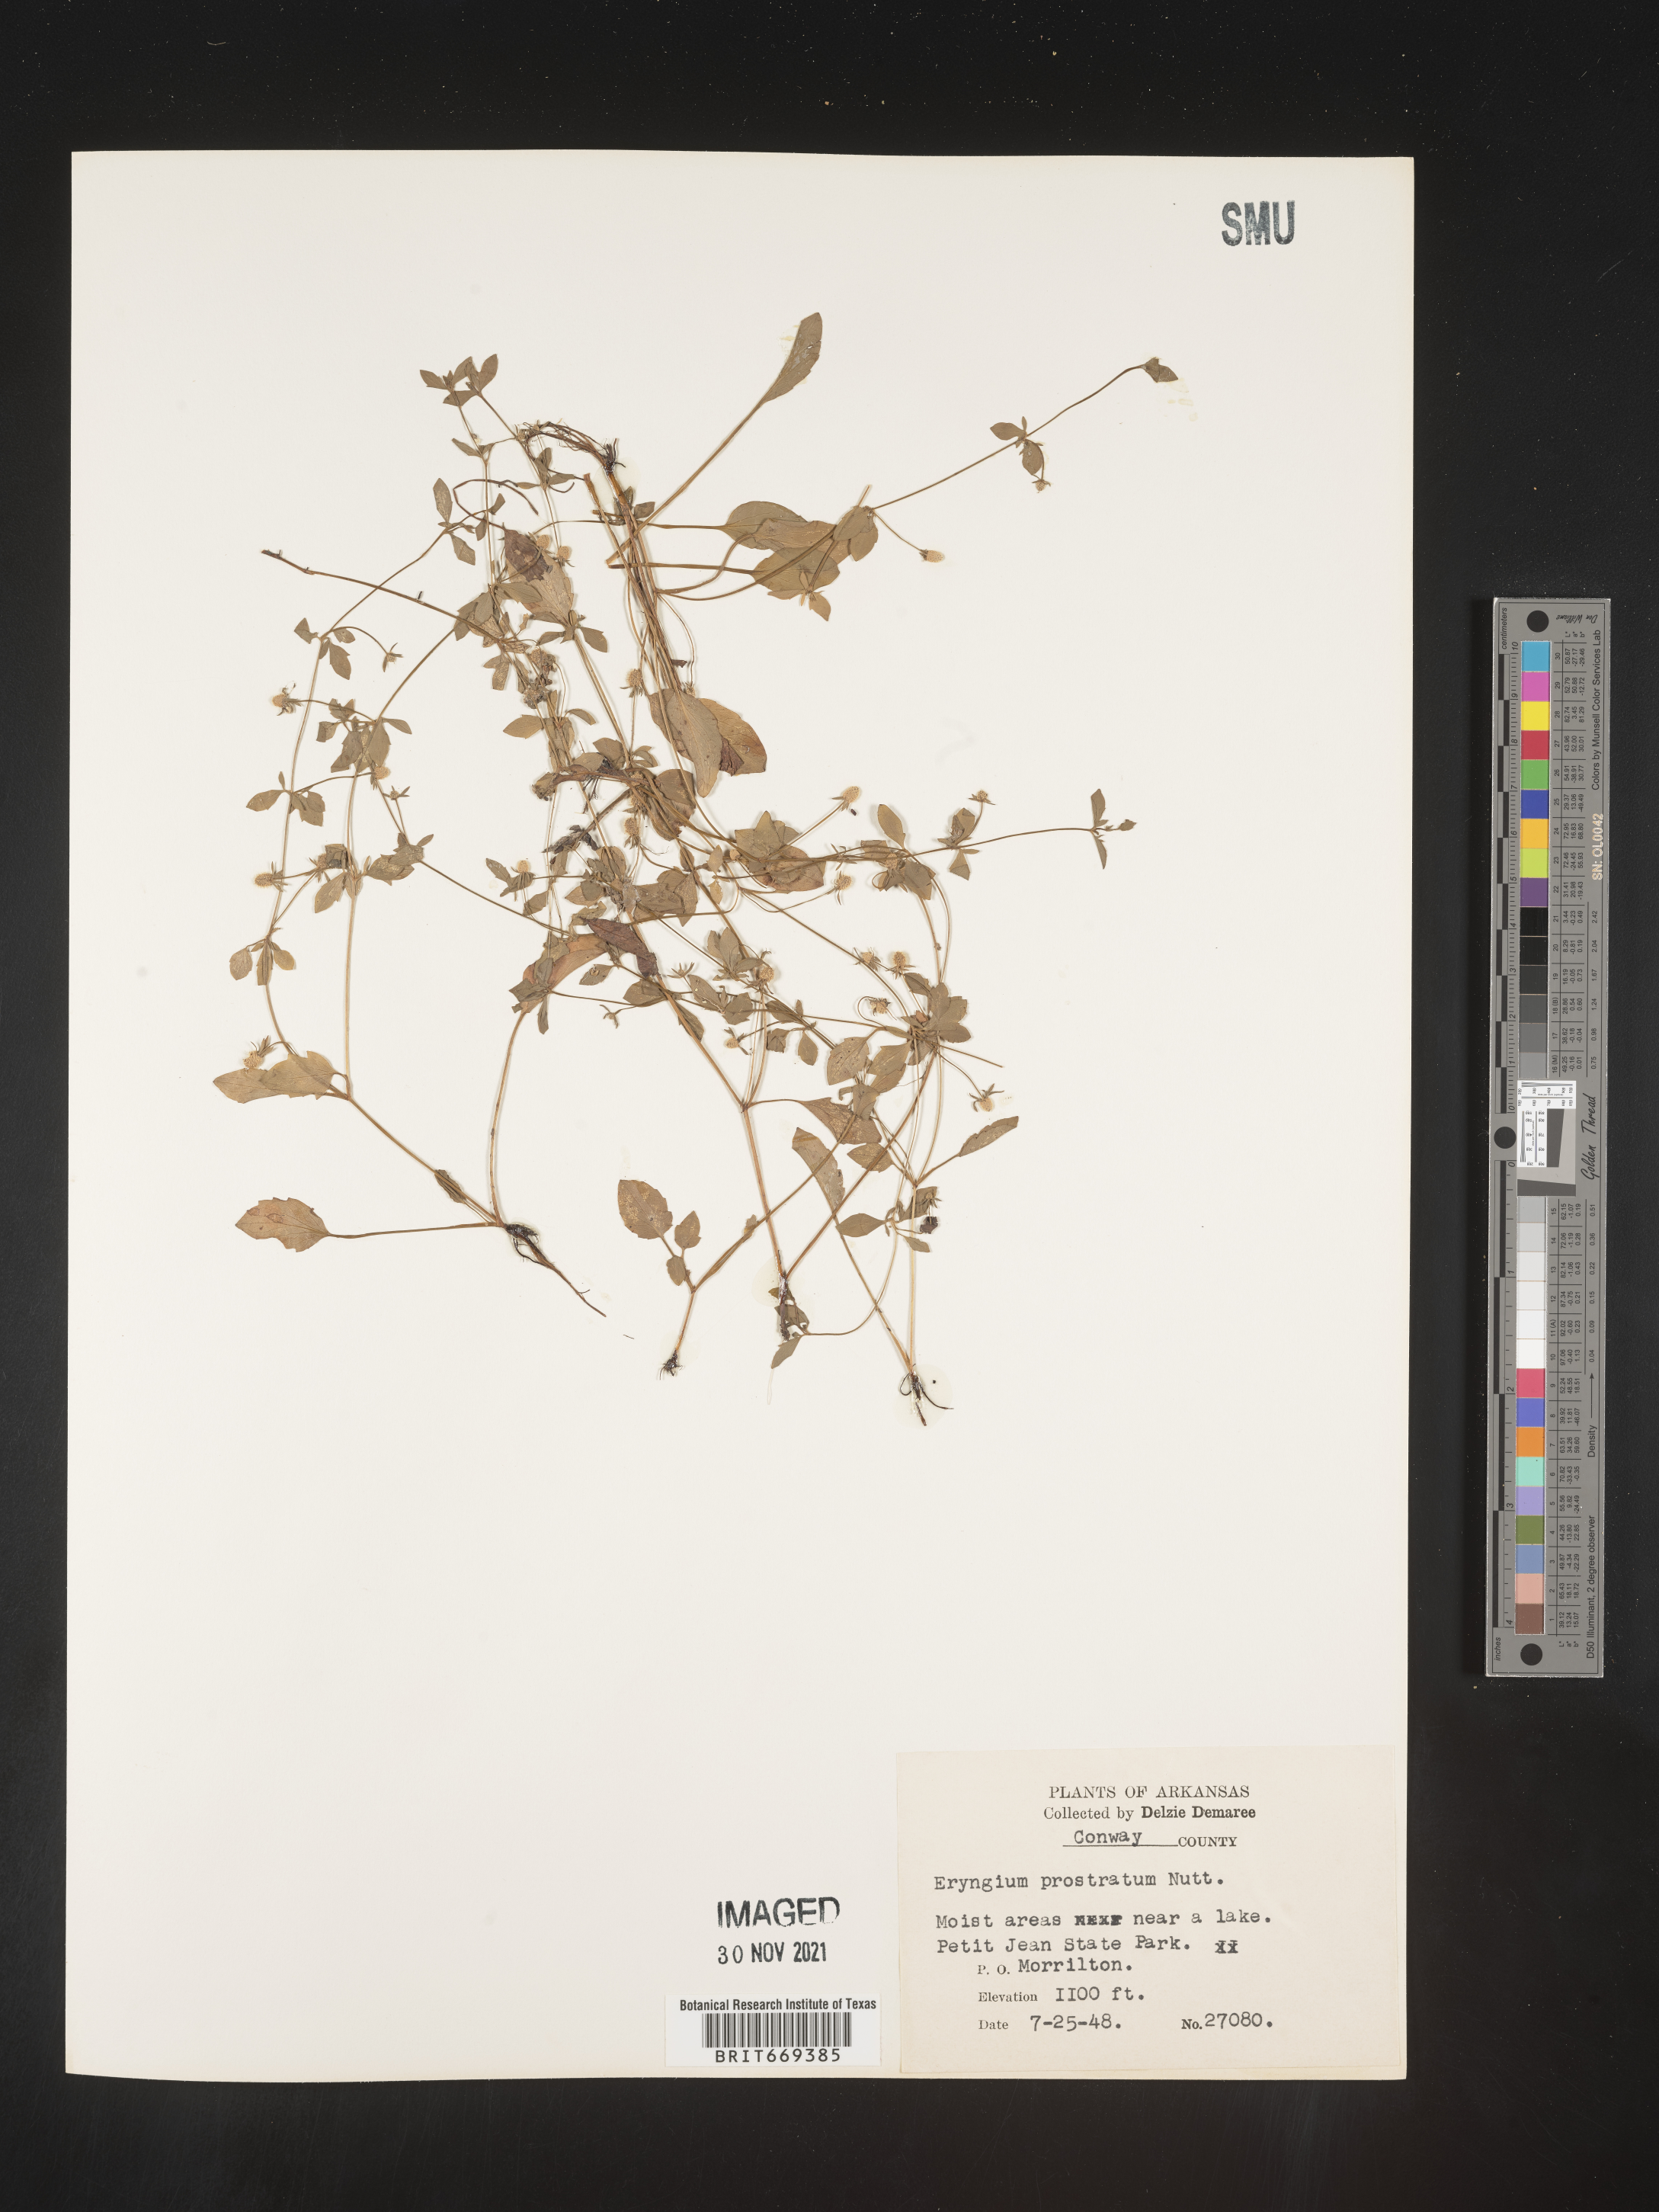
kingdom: Plantae
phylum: Tracheophyta
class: Magnoliopsida
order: Apiales
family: Apiaceae
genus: Eryngium
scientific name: Eryngium prostratum
